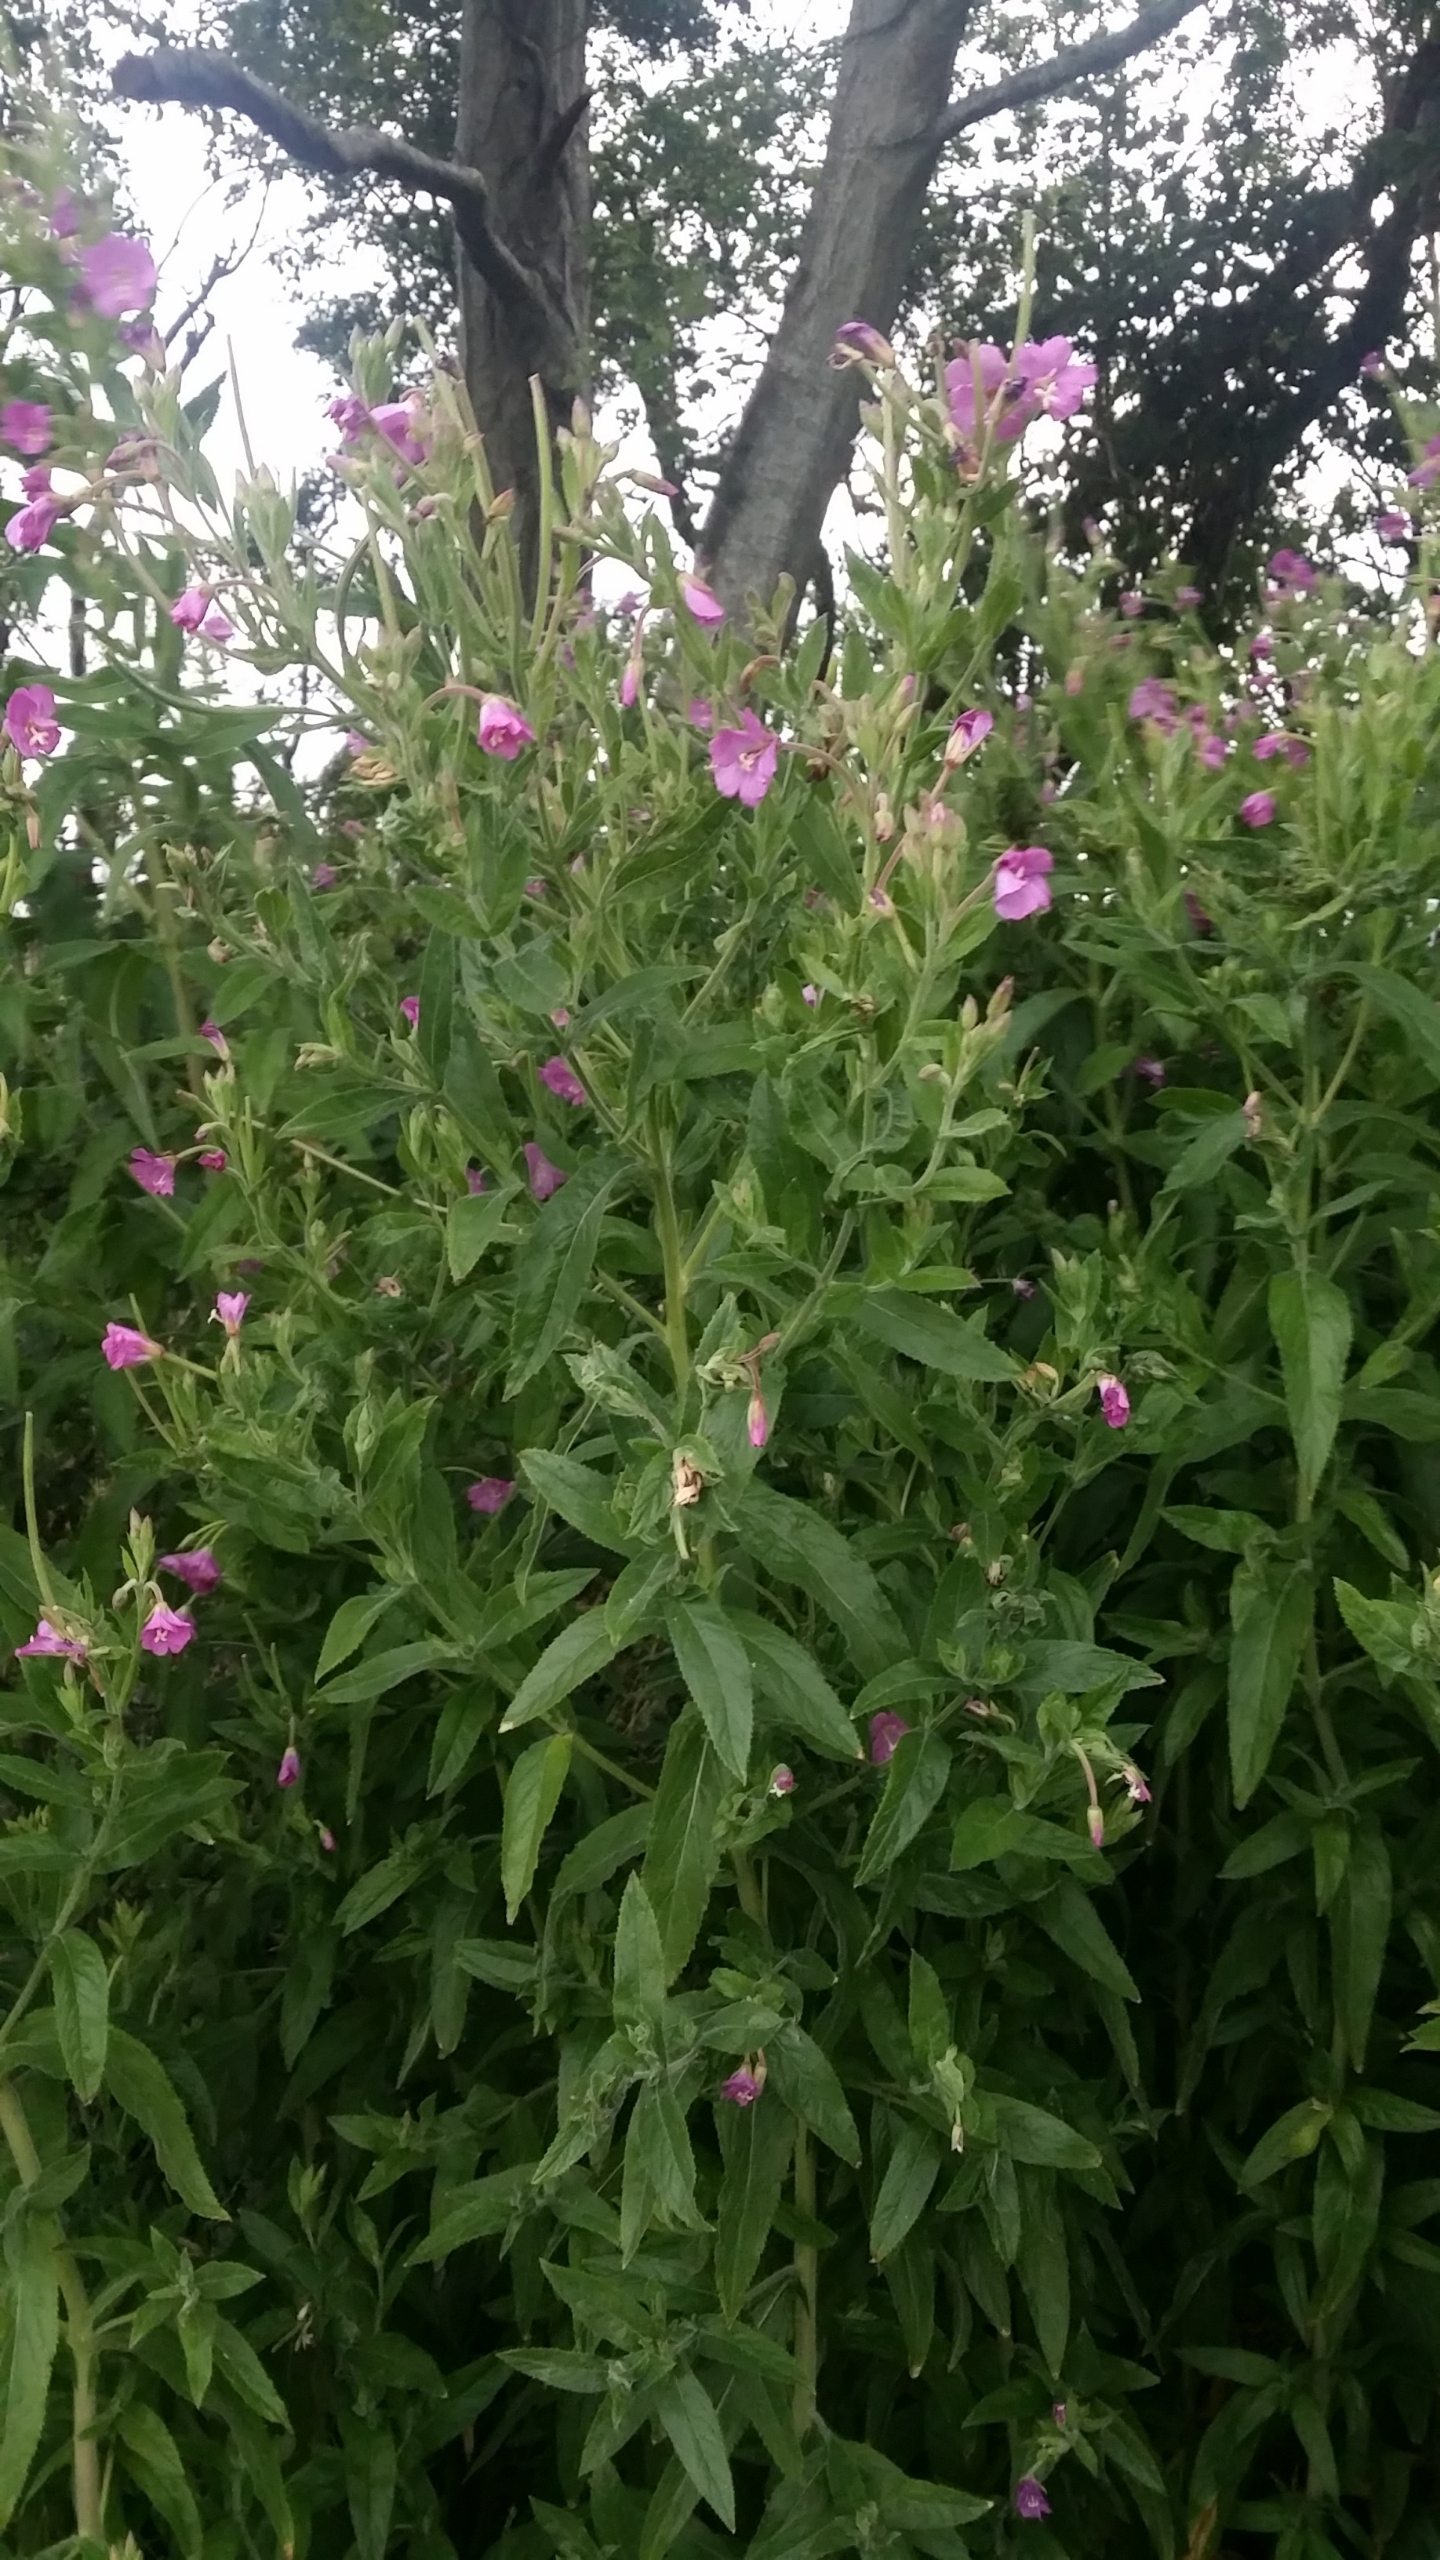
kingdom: Plantae
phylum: Tracheophyta
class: Magnoliopsida
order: Myrtales
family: Onagraceae
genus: Epilobium
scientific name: Epilobium hirsutum
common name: Lådden dueurt
